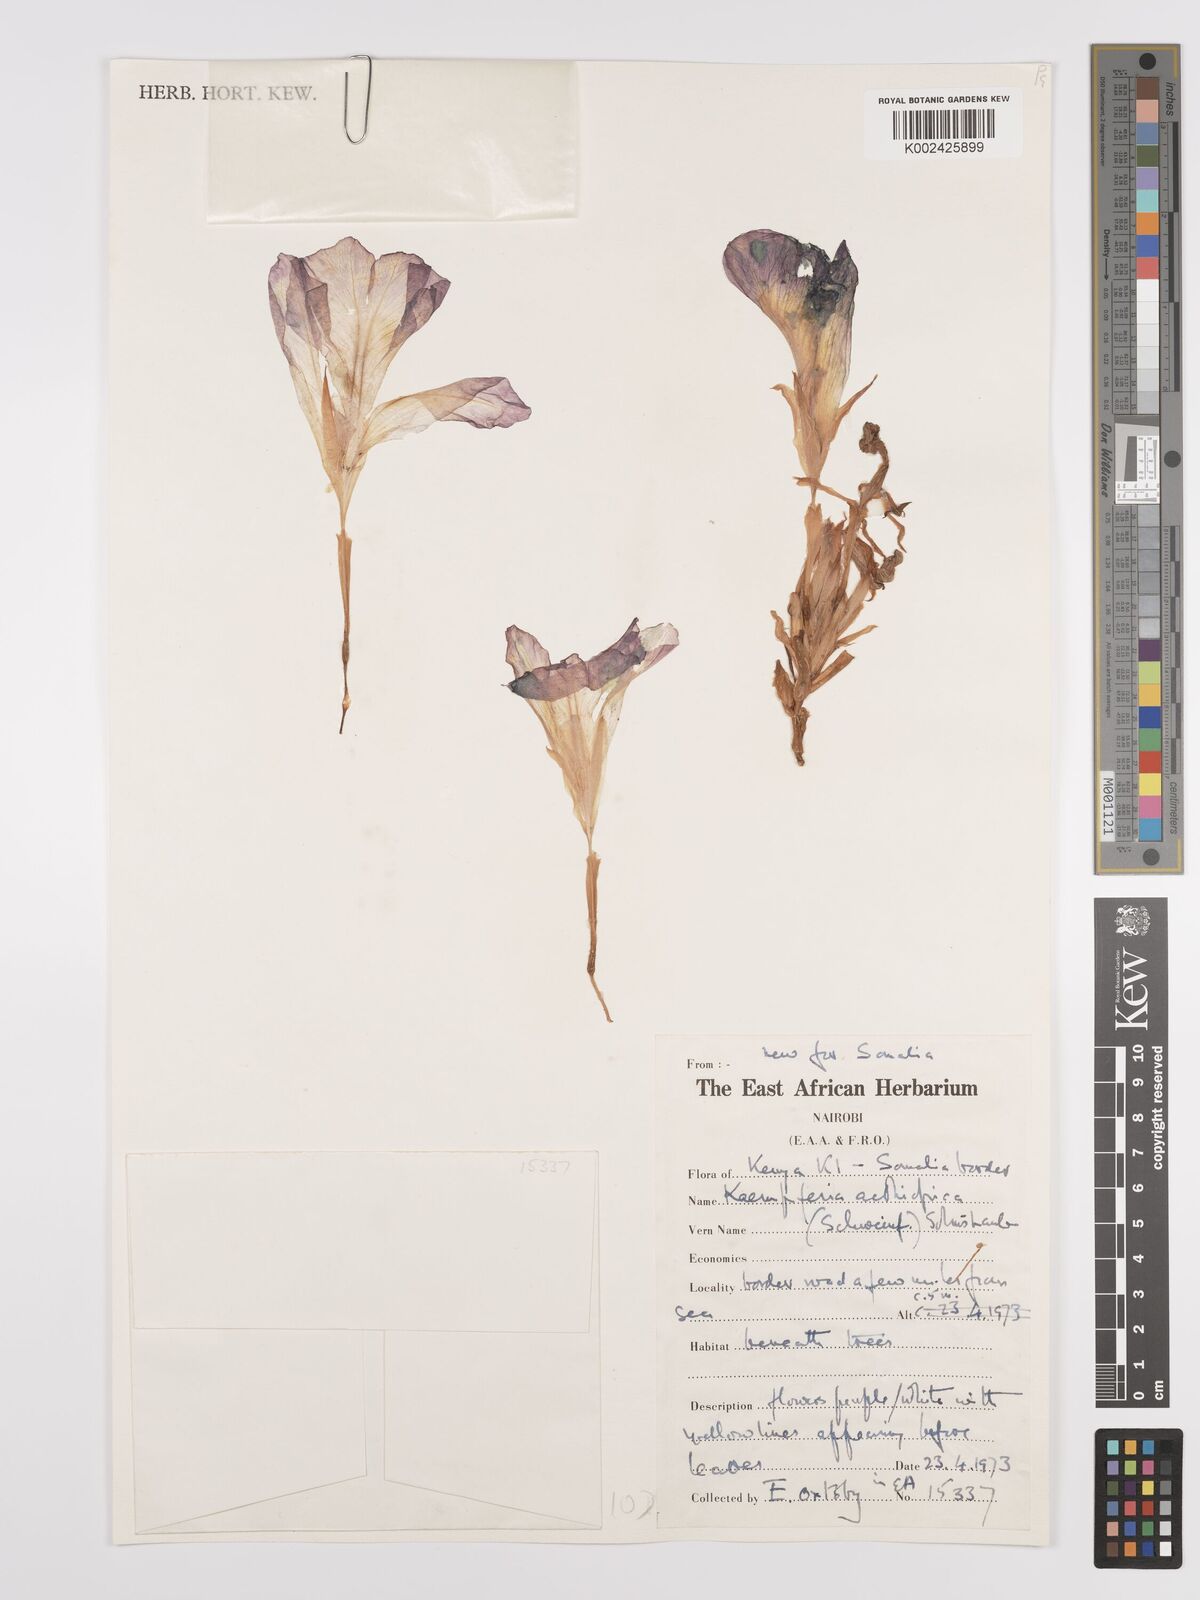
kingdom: Plantae
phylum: Tracheophyta
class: Liliopsida
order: Zingiberales
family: Zingiberaceae
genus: Siphonochilus
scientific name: Siphonochilus aethiopicus
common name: African-ginger
